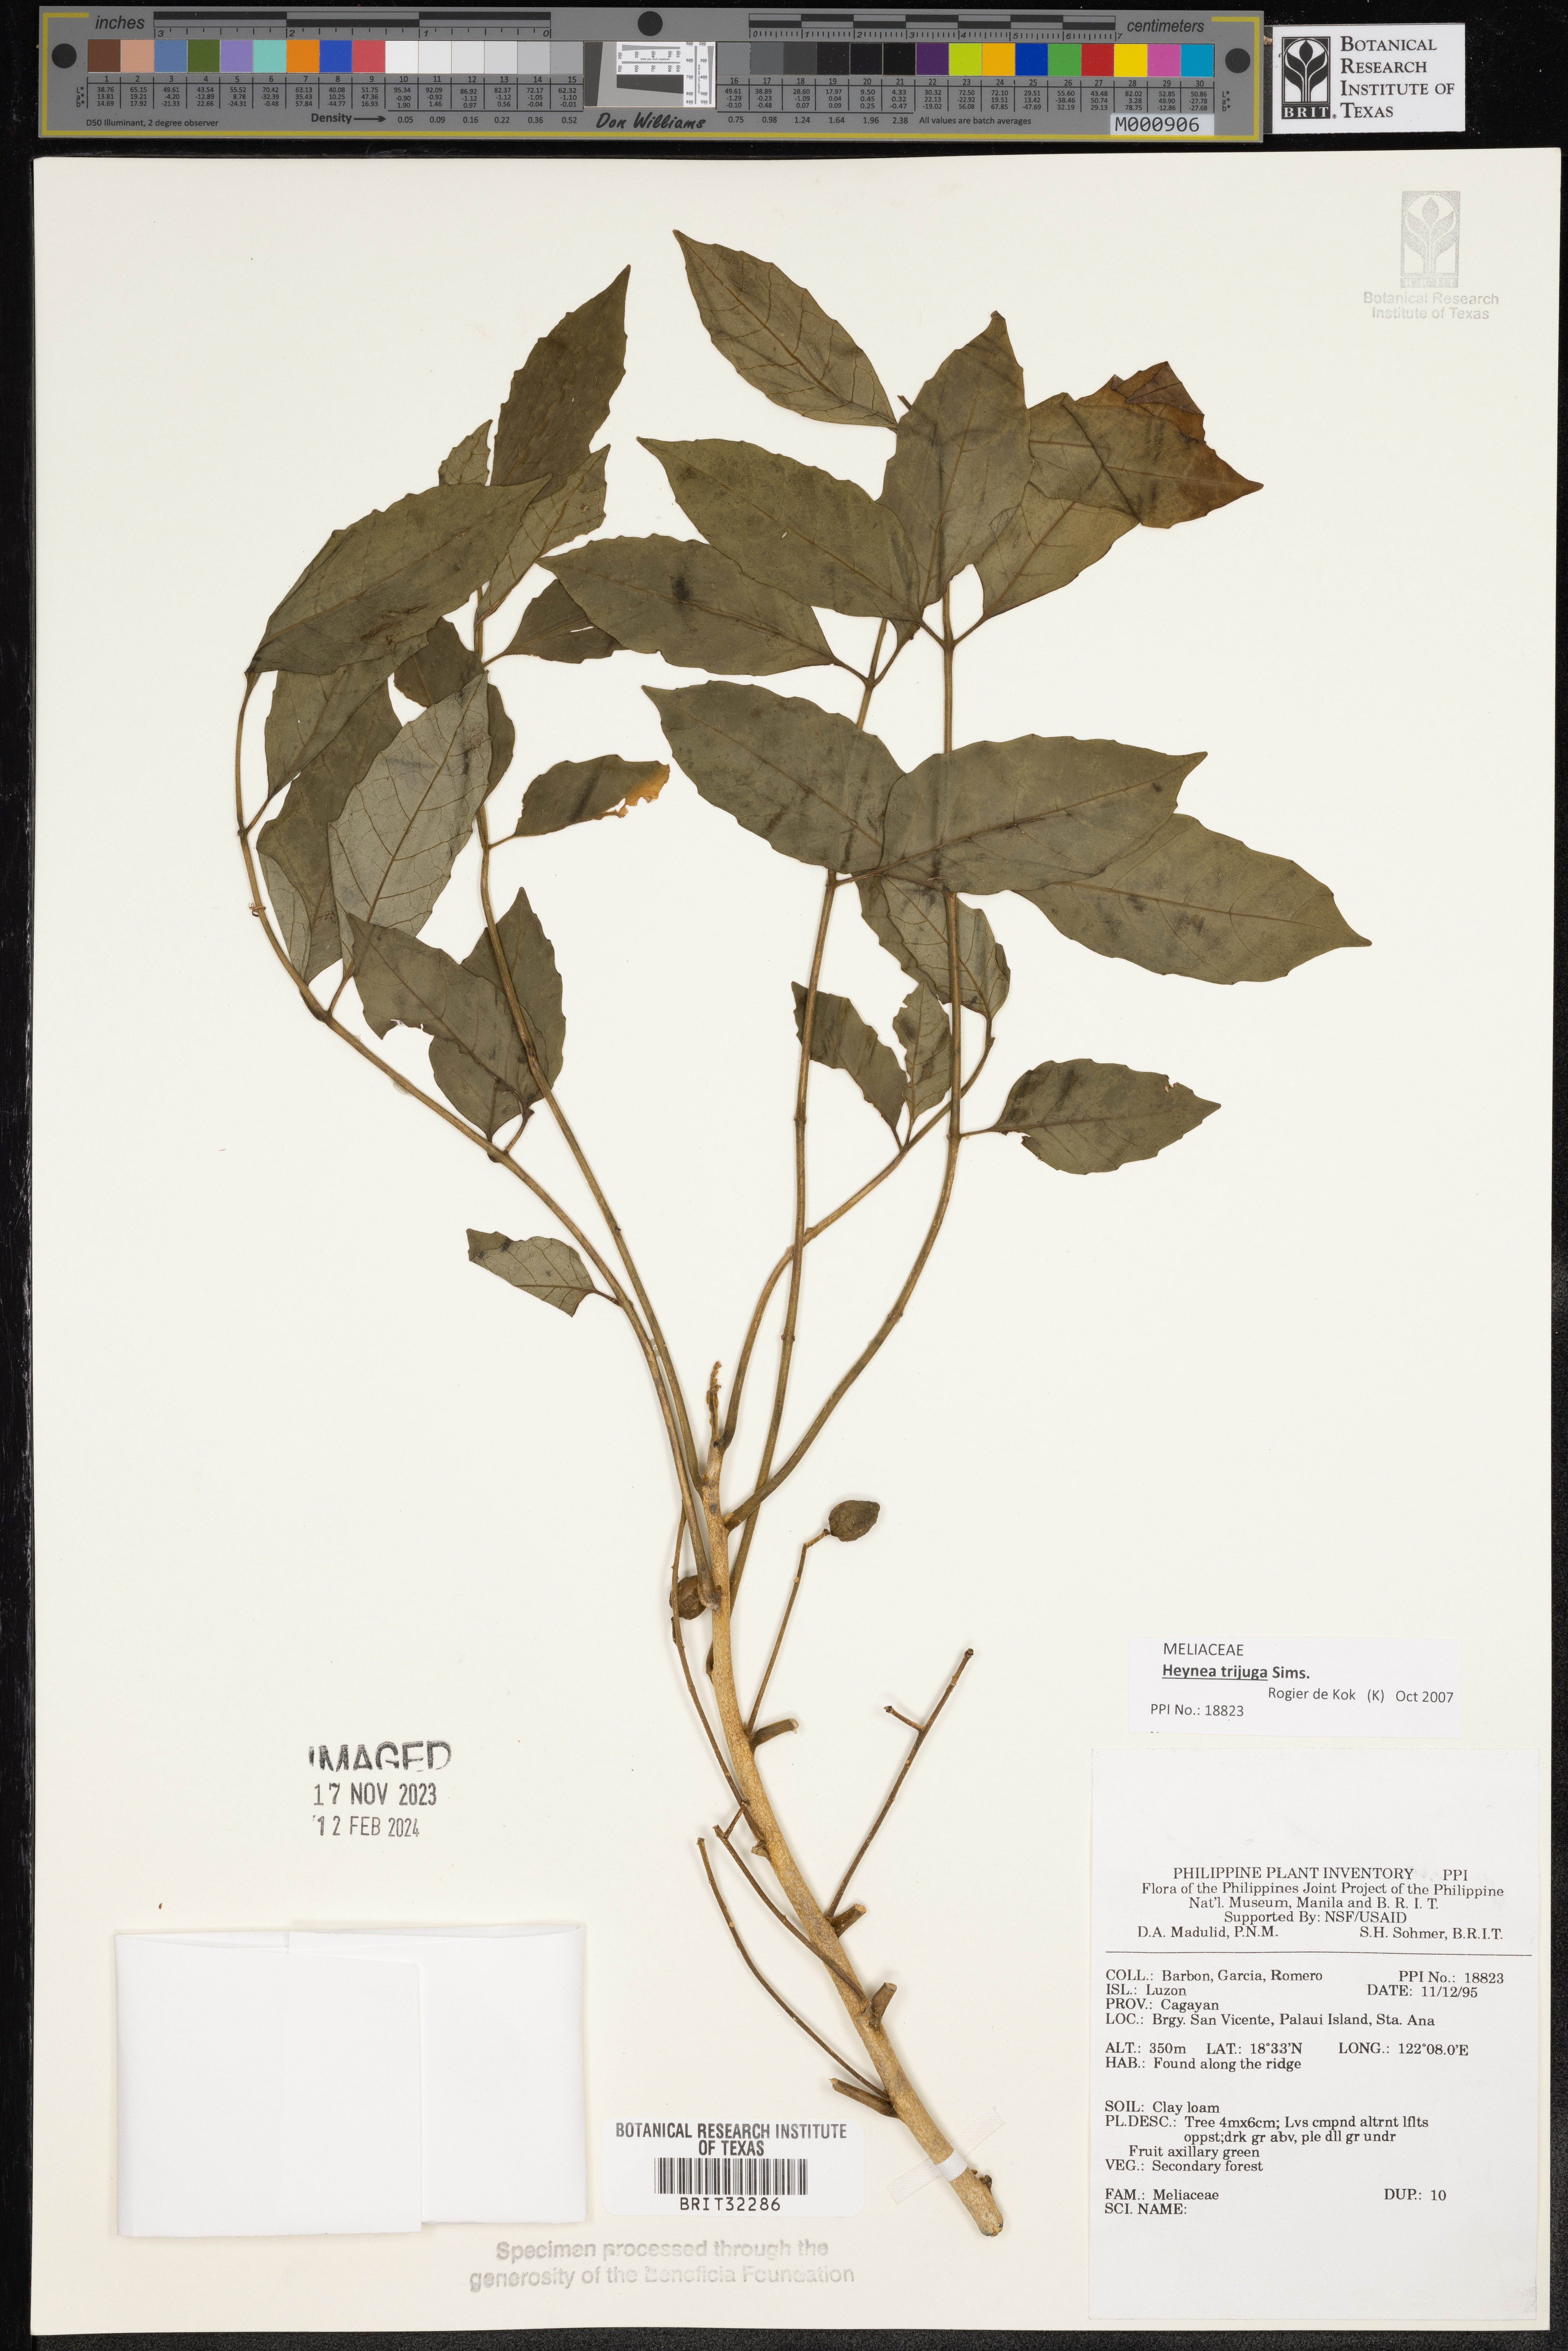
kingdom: Plantae
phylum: Tracheophyta
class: Magnoliopsida
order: Sapindales
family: Meliaceae
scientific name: Meliaceae
